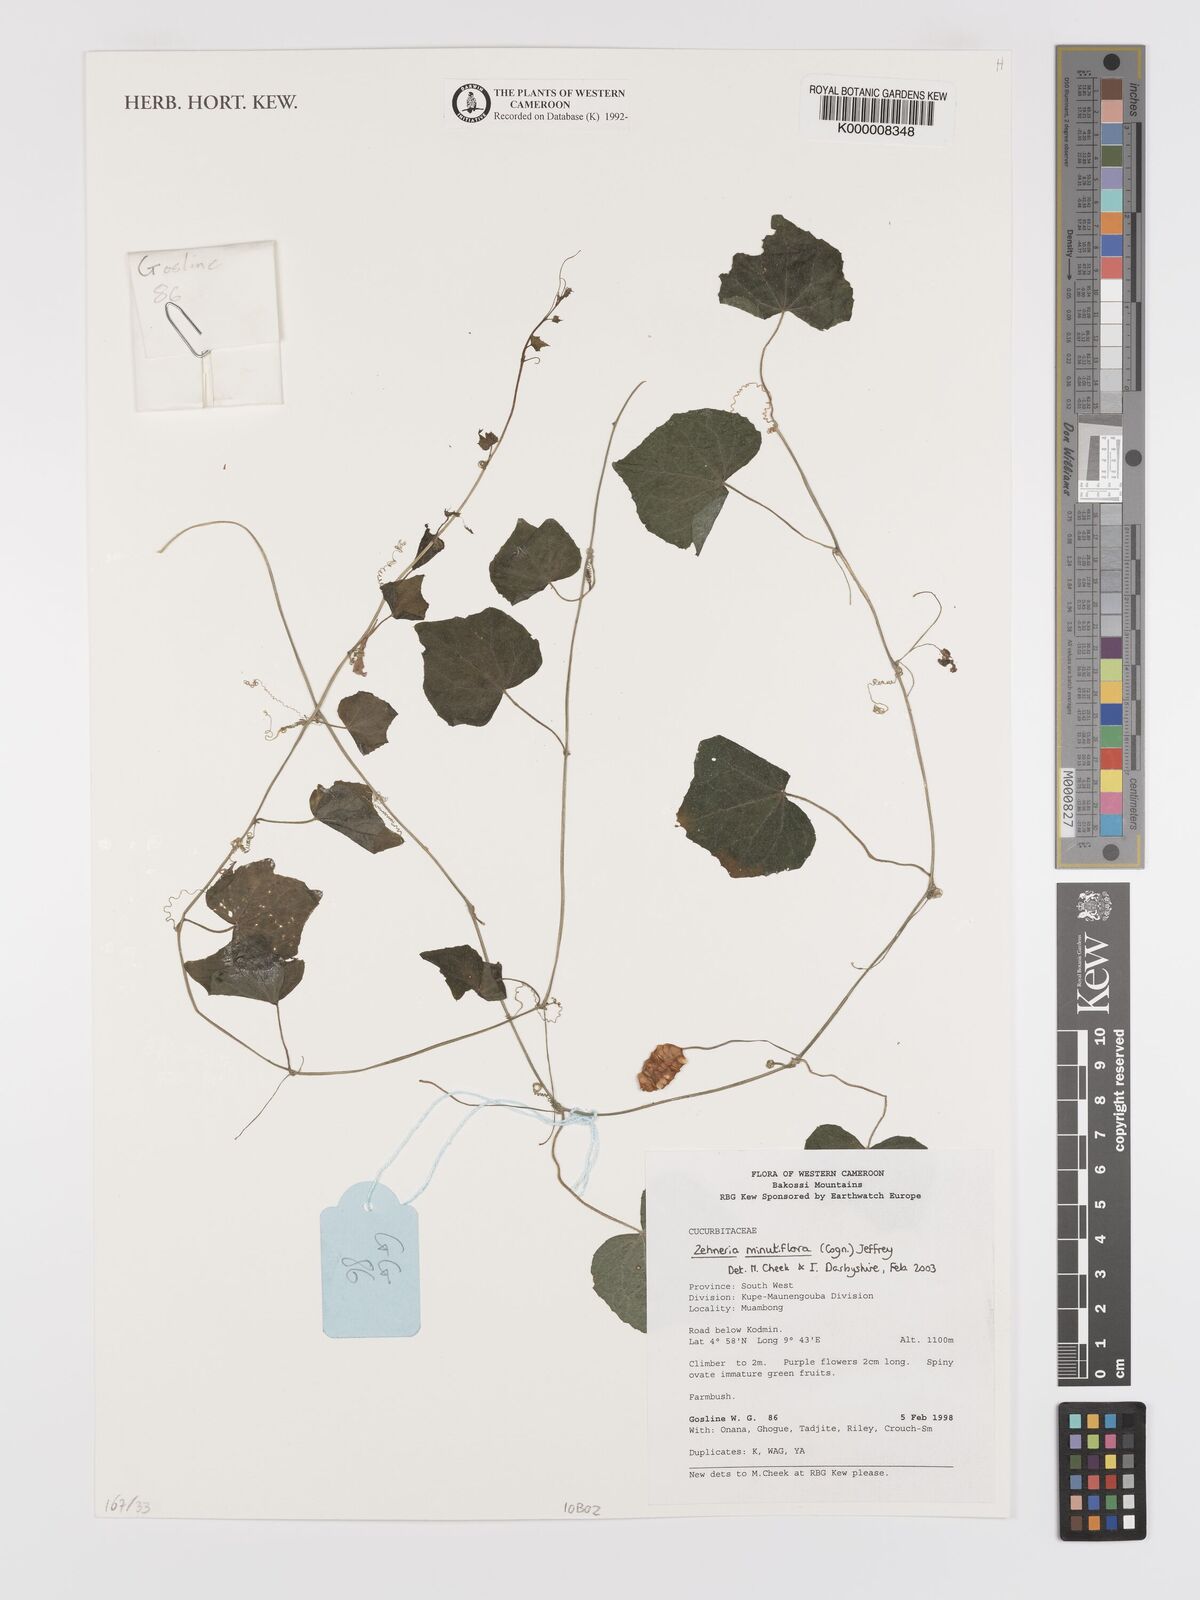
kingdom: Plantae
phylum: Tracheophyta
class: Magnoliopsida
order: Cucurbitales
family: Cucurbitaceae
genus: Zehneria
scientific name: Zehneria minutiflora
